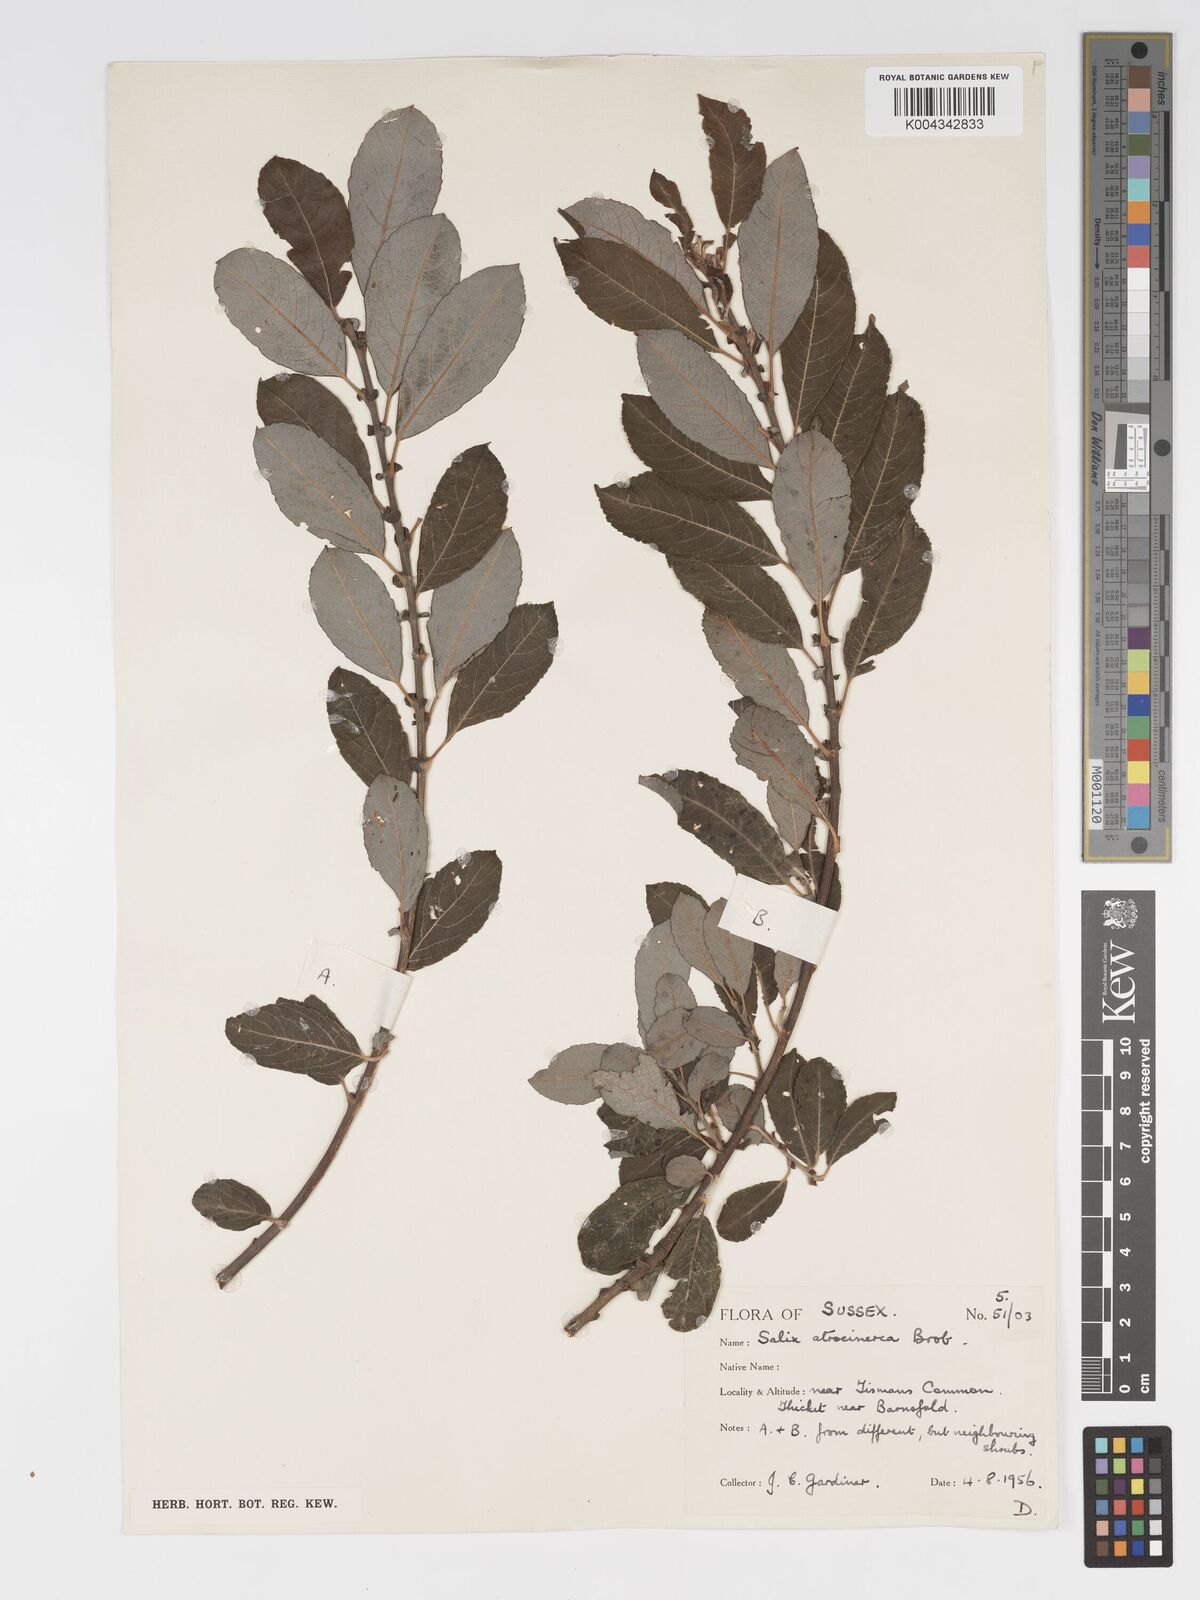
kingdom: Plantae
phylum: Tracheophyta
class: Magnoliopsida
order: Malpighiales
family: Salicaceae
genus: Salix
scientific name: Salix atrocinerea
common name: Rusty willow
